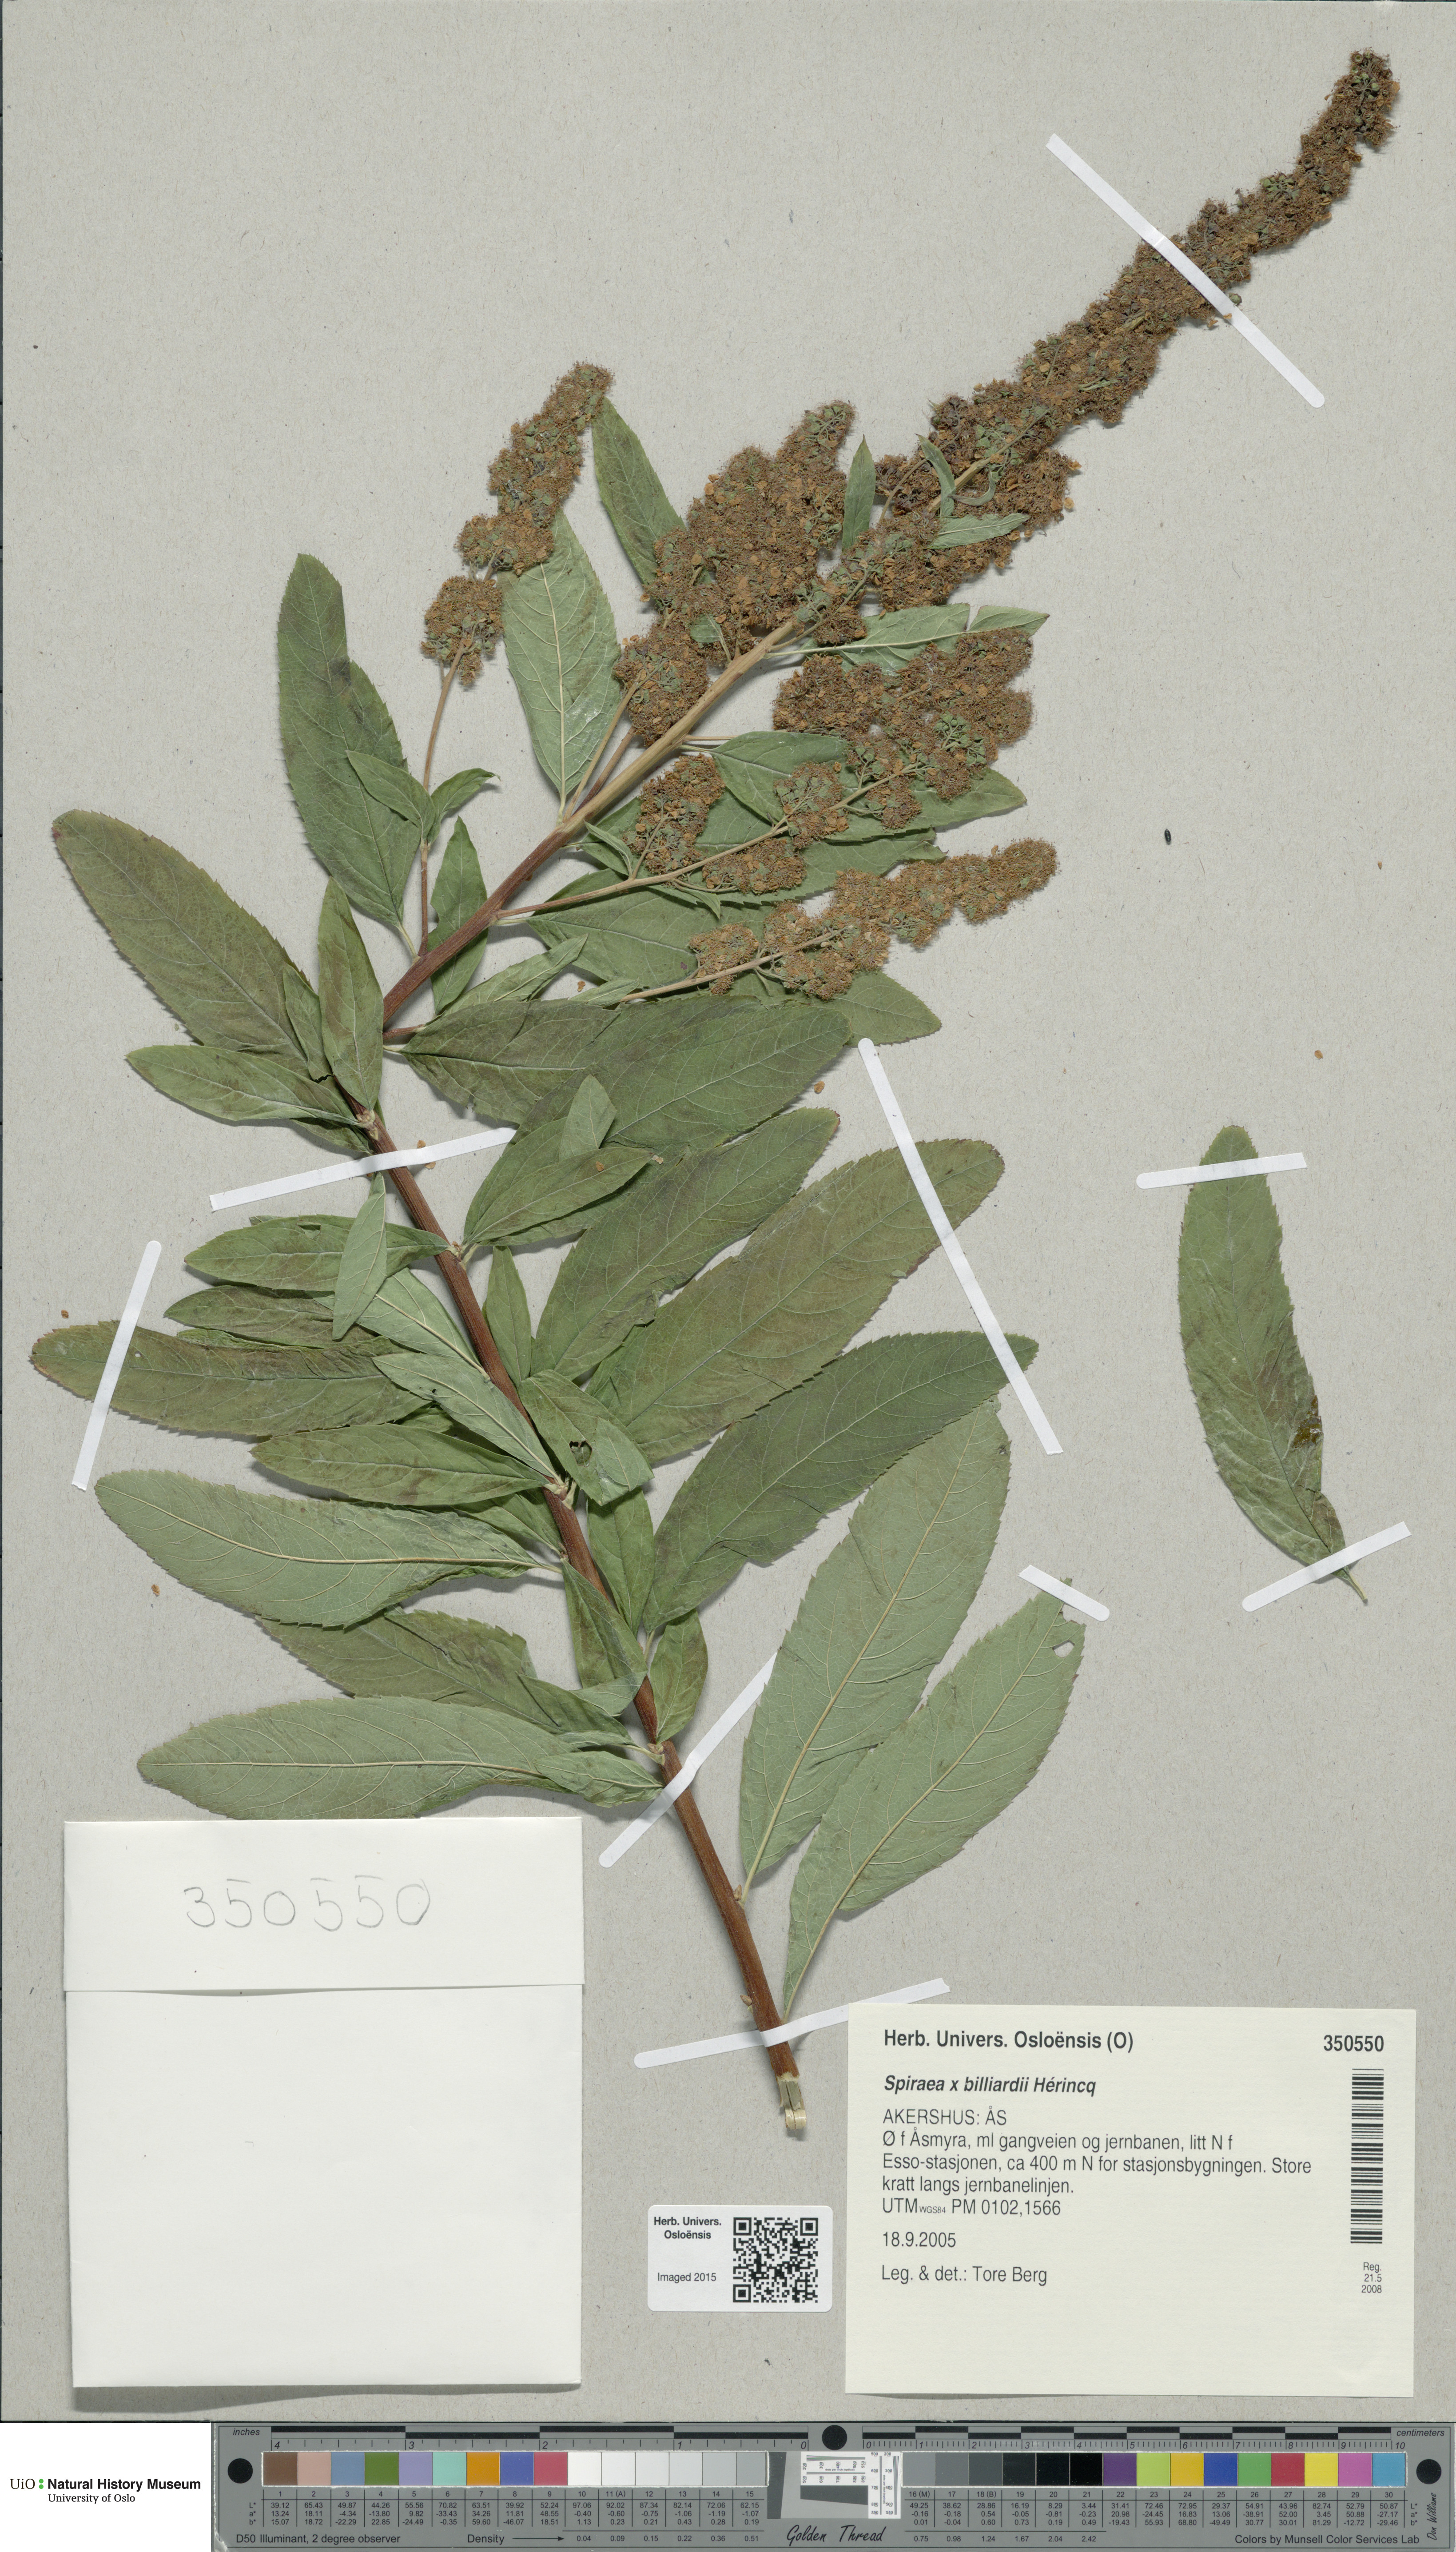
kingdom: Plantae
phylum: Tracheophyta
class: Magnoliopsida
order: Rosales
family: Rosaceae
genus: Spiraea
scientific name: Spiraea billardii
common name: Billard's bridewort
